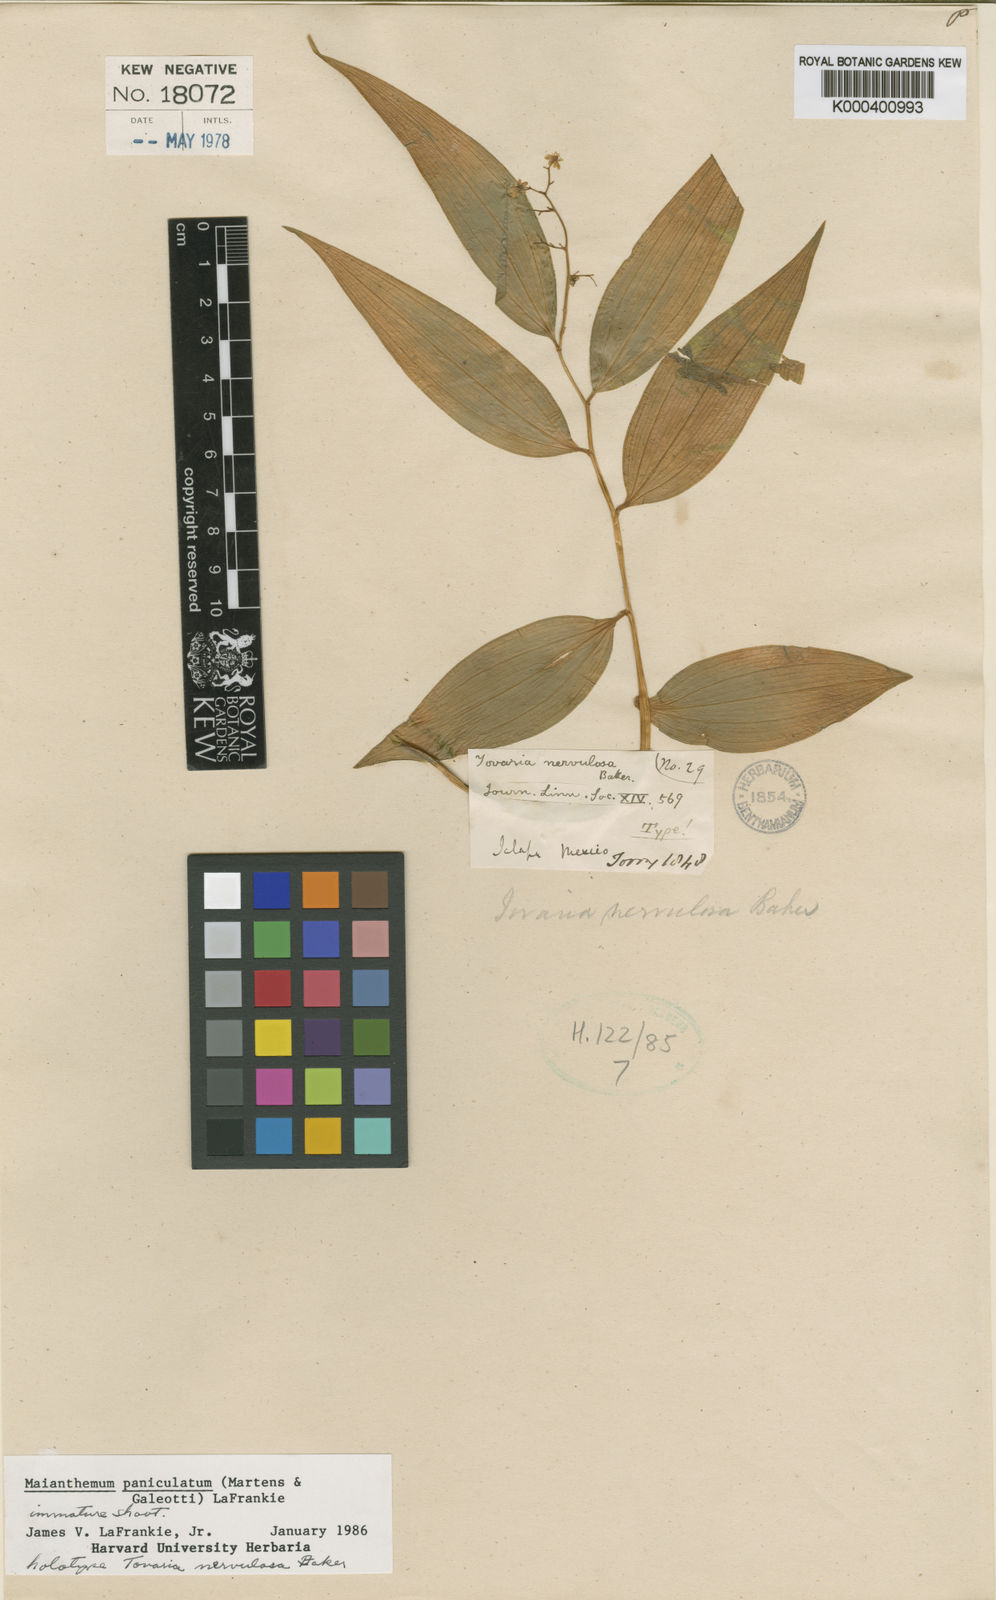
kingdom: Plantae
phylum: Tracheophyta
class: Liliopsida
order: Asparagales
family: Asparagaceae
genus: Maianthemum
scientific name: Maianthemum paniculatum
